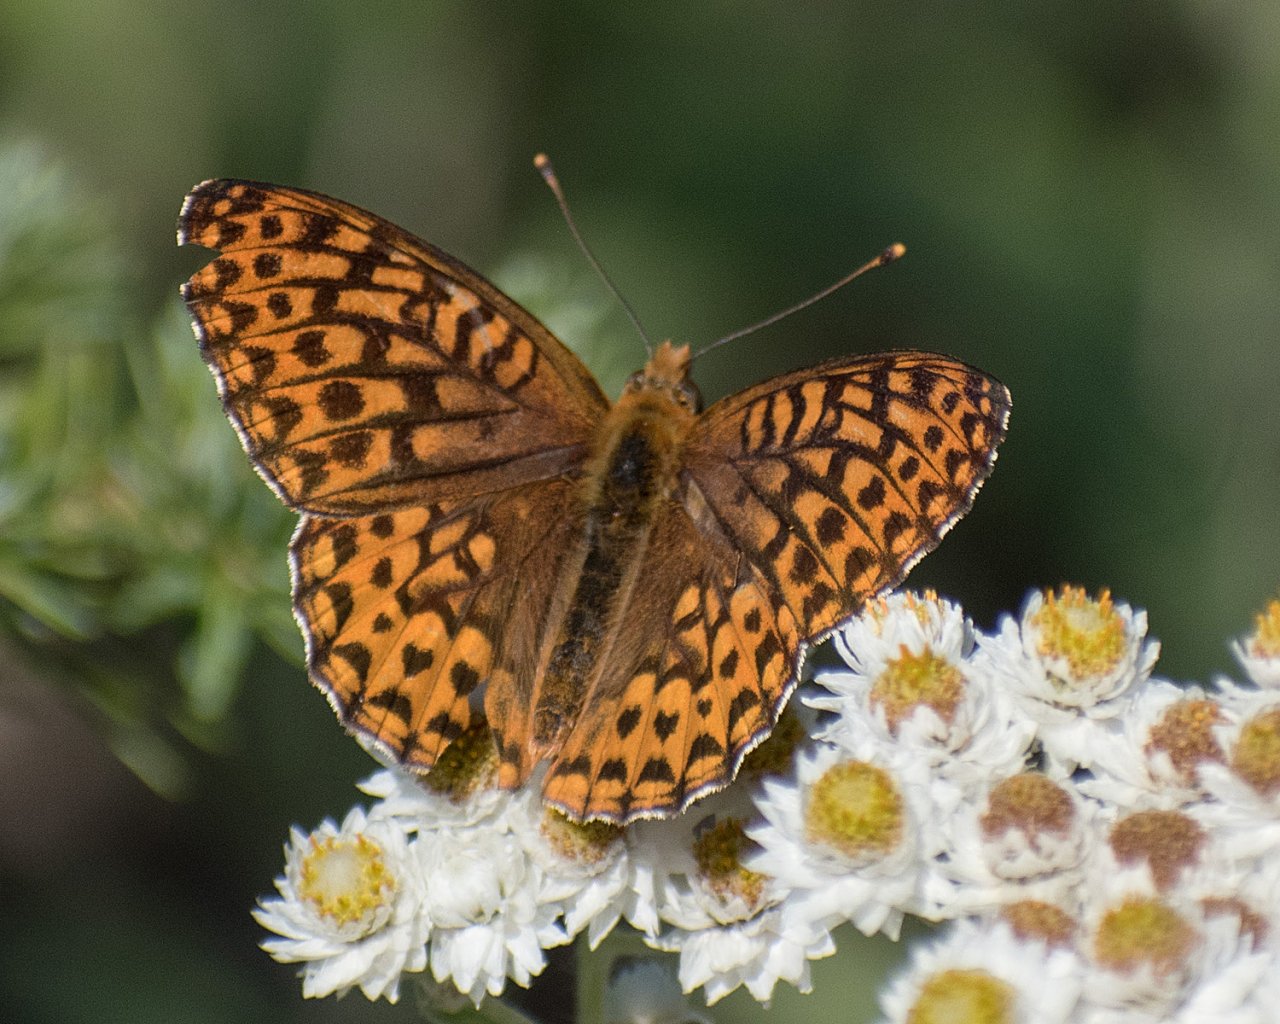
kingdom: Animalia
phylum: Arthropoda
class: Insecta
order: Lepidoptera
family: Nymphalidae
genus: Speyeria
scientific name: Speyeria hydaspe
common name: Hydaspe Fritillary
